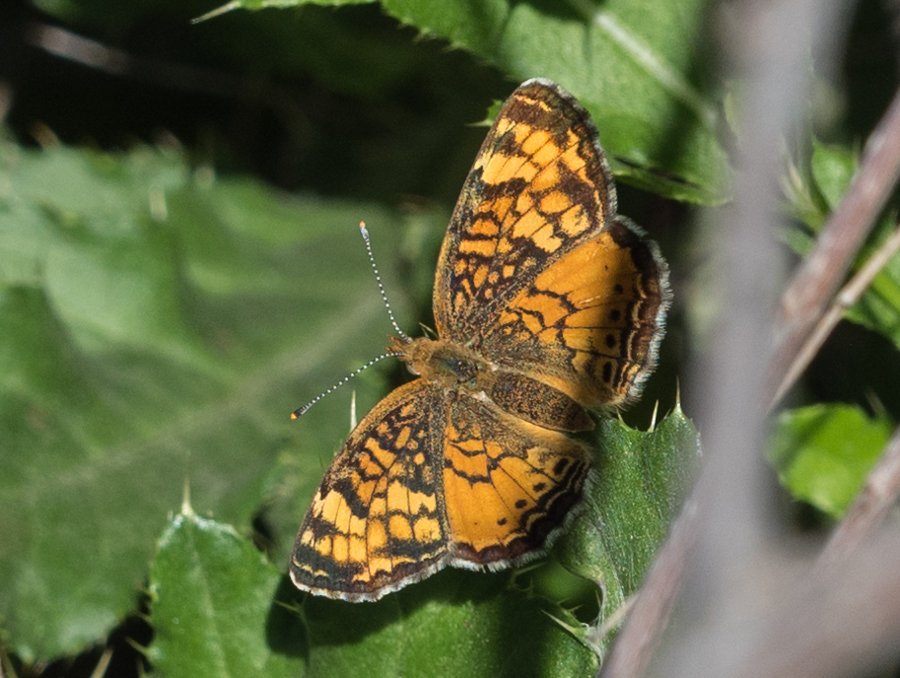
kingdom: Animalia
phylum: Arthropoda
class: Insecta
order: Lepidoptera
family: Nymphalidae
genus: Phyciodes
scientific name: Phyciodes tharos
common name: Northern Crescent
